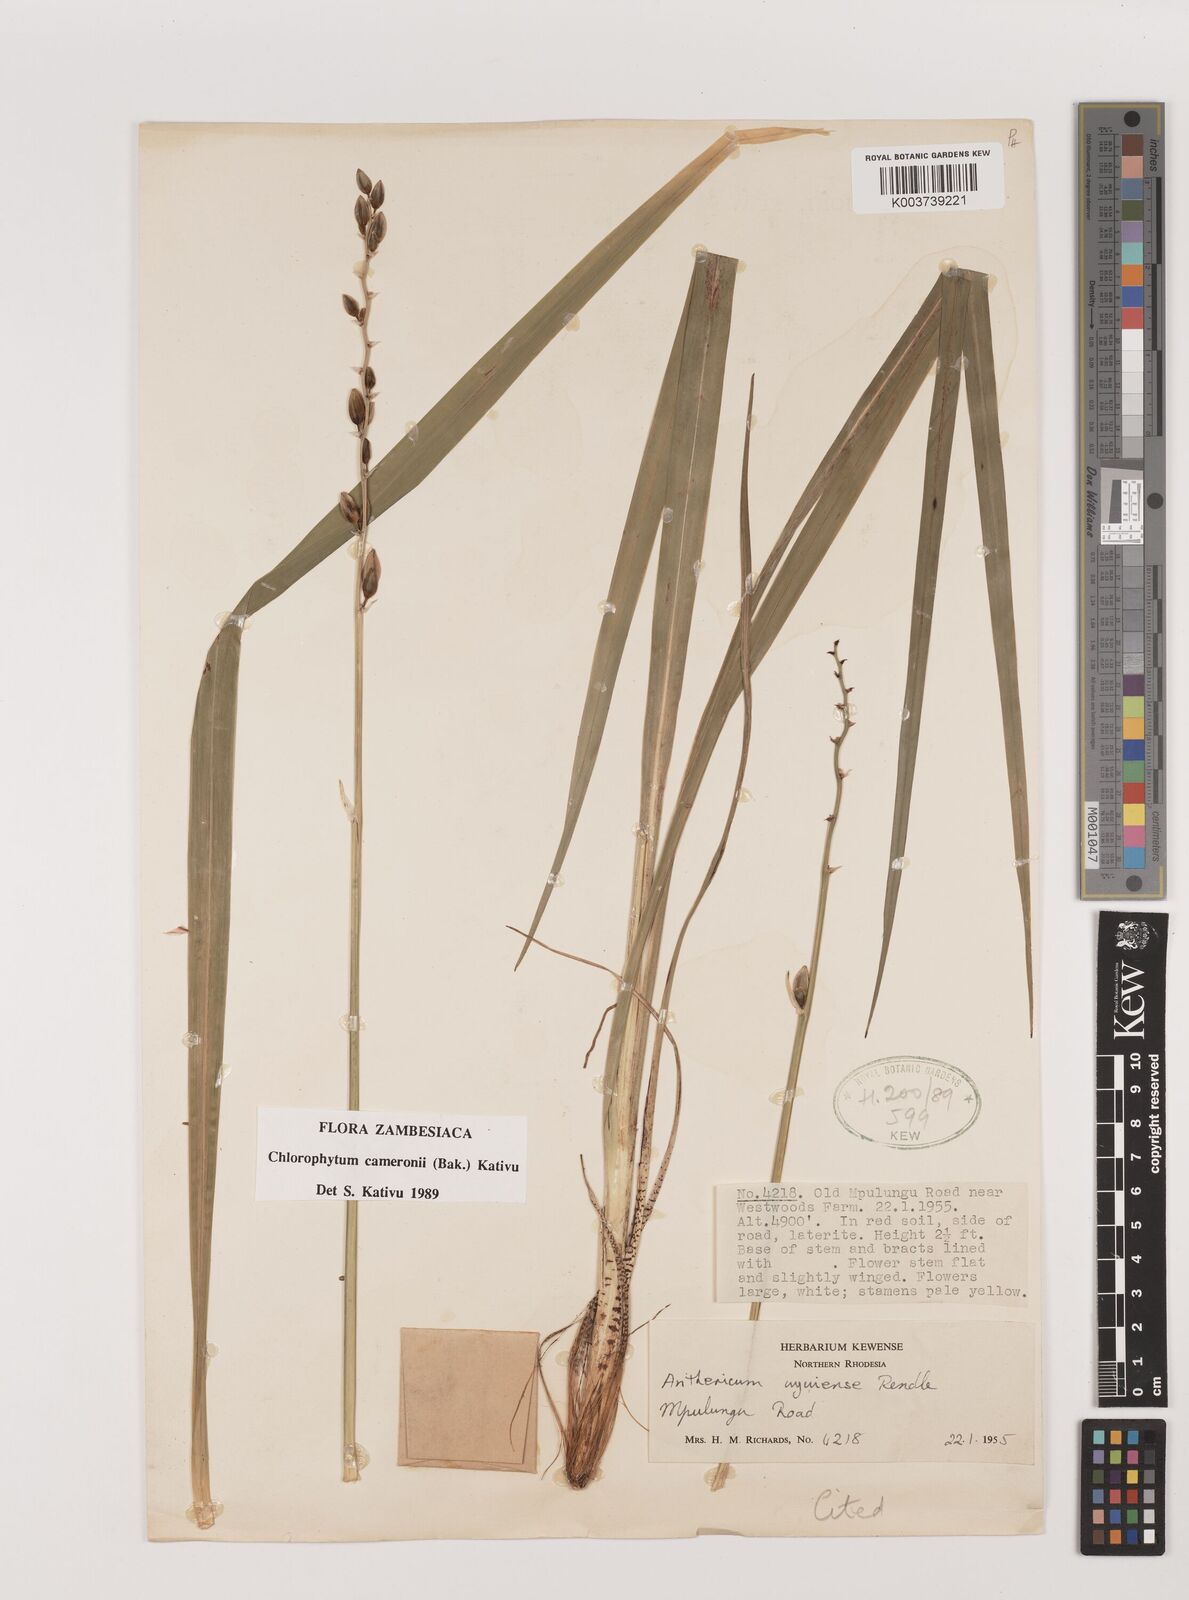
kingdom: Plantae
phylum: Tracheophyta
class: Liliopsida
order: Asparagales
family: Asparagaceae
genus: Chlorophytum
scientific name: Chlorophytum cameronii
